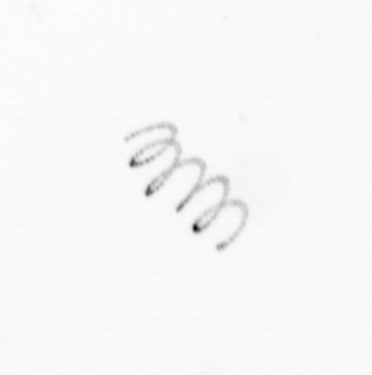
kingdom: Chromista
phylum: Ochrophyta
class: Bacillariophyceae
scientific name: Bacillariophyceae
